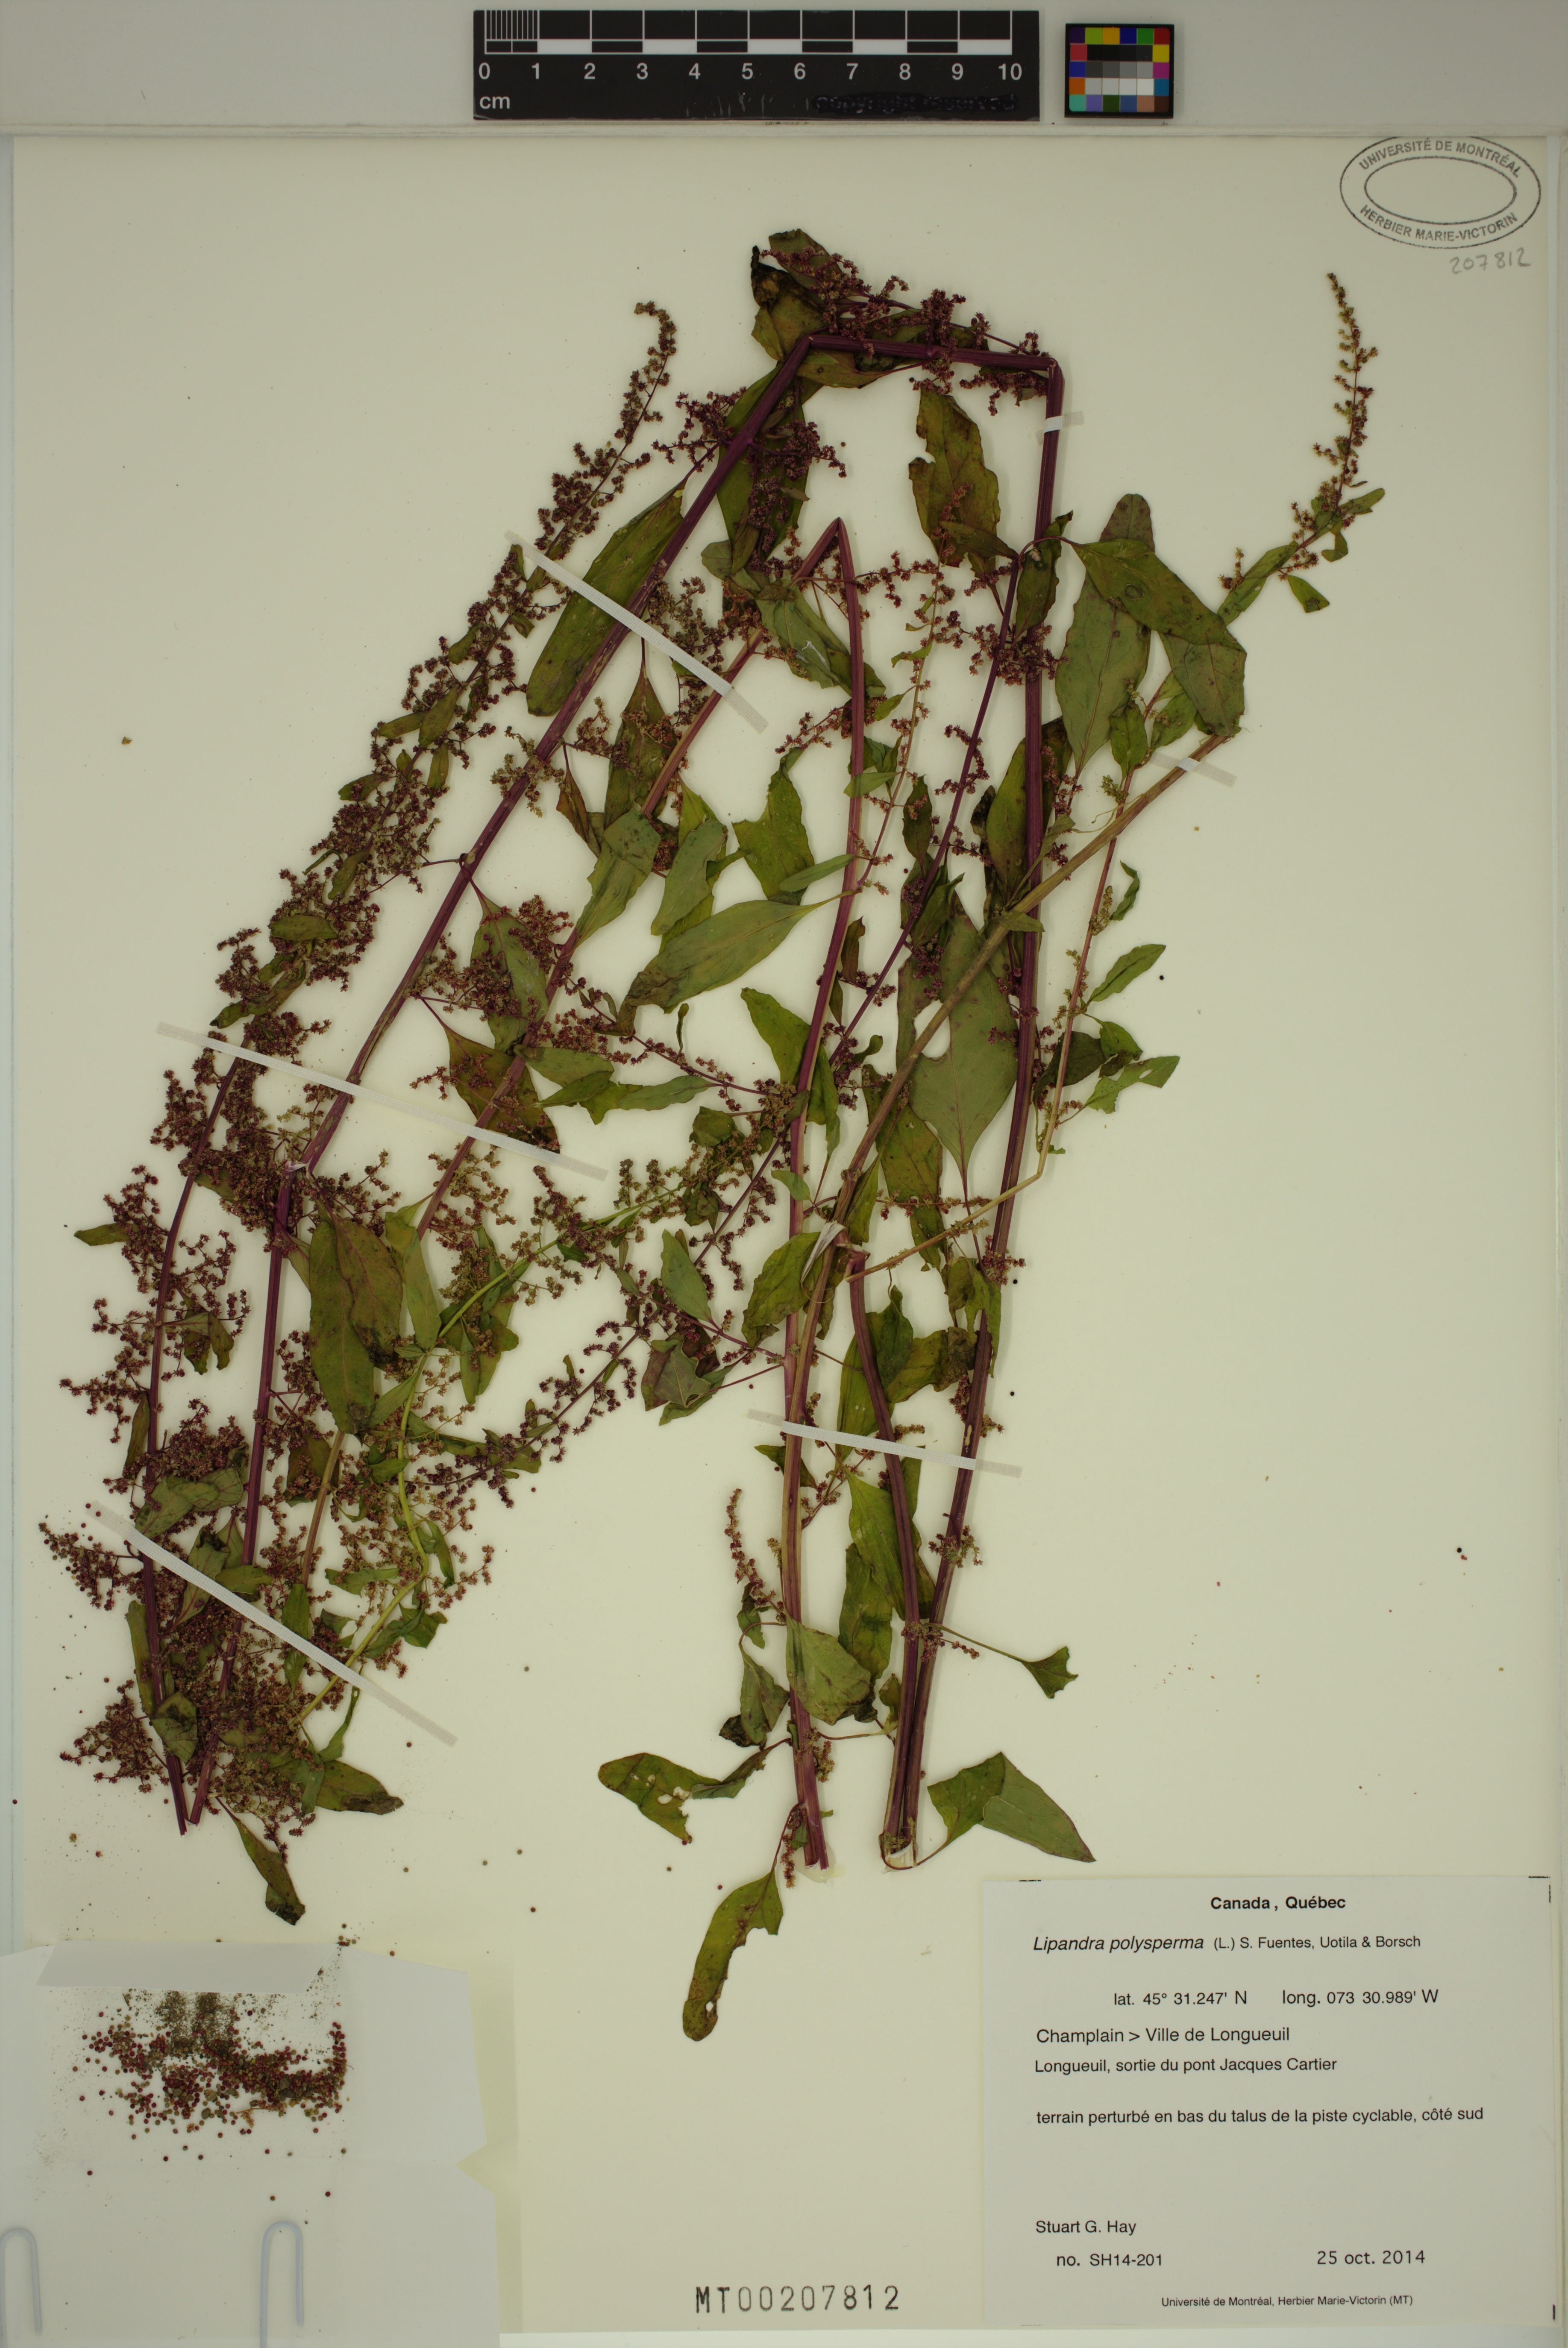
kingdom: Plantae
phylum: Tracheophyta
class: Magnoliopsida
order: Caryophyllales
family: Amaranthaceae
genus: Lipandra
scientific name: Lipandra polysperma
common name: Many-seed goosefoot
